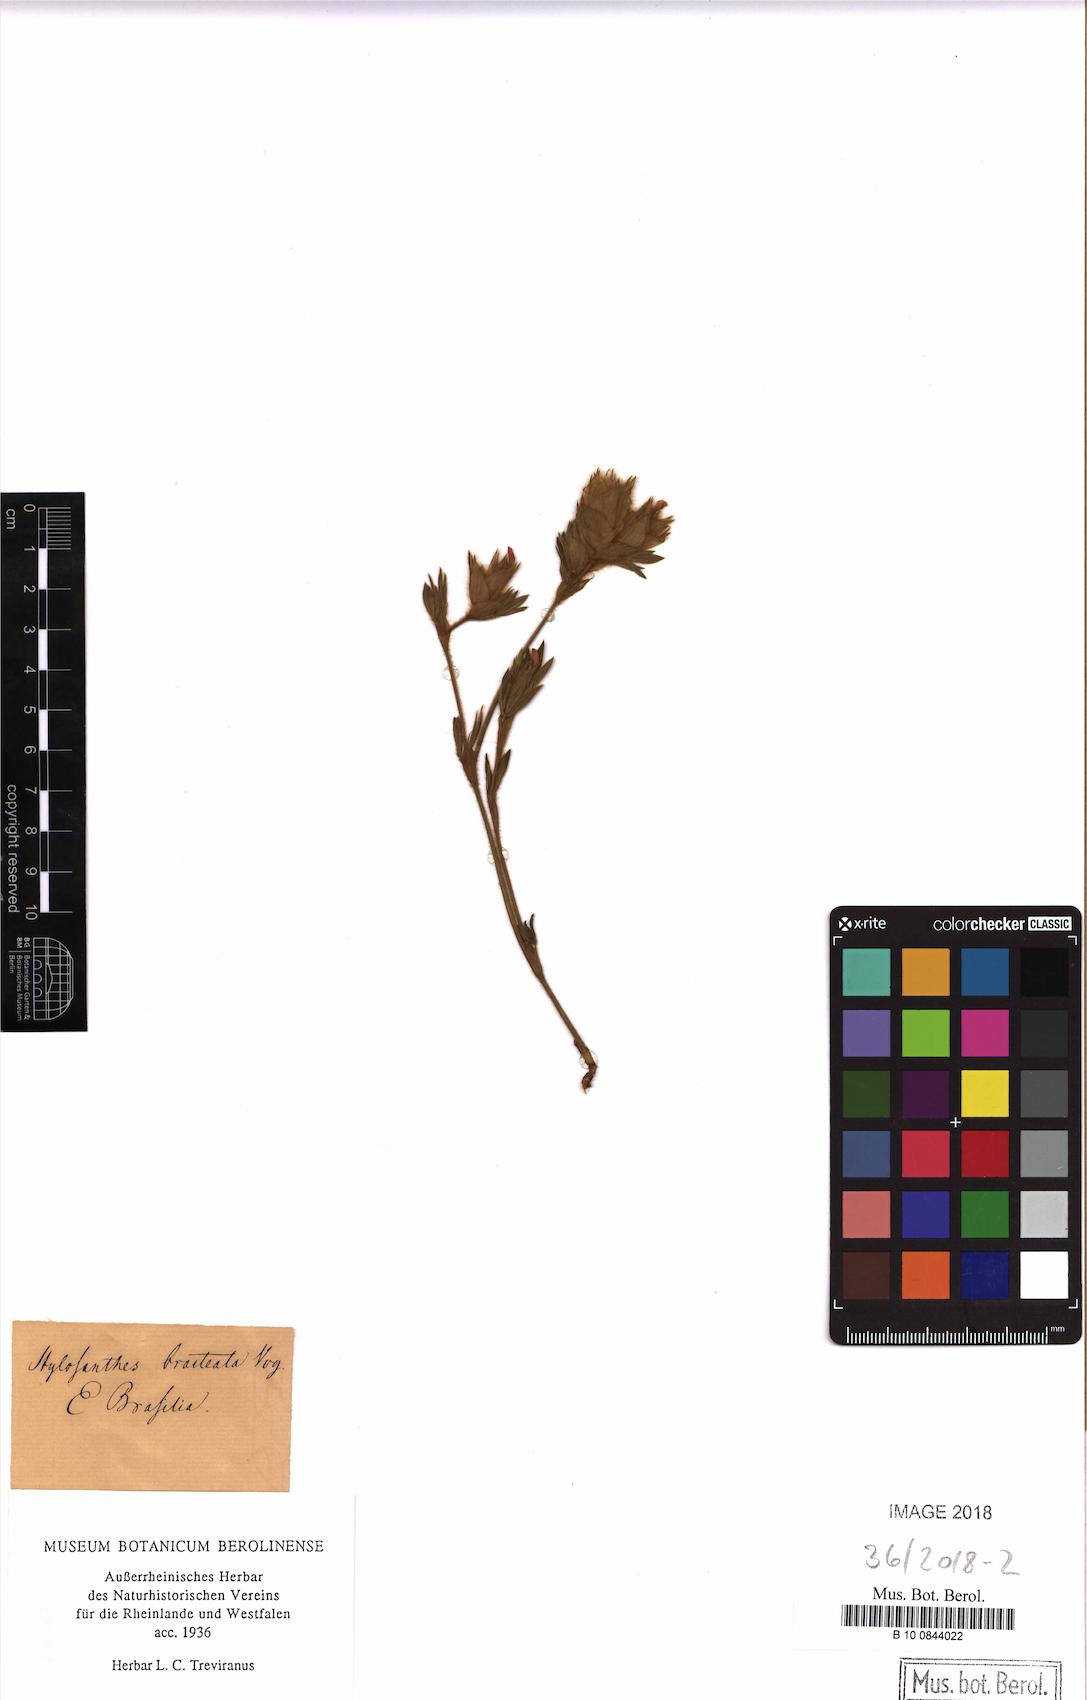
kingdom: Plantae
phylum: Tracheophyta
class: Magnoliopsida
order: Fabales
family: Fabaceae
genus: Stylosanthes
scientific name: Stylosanthes bracteata
